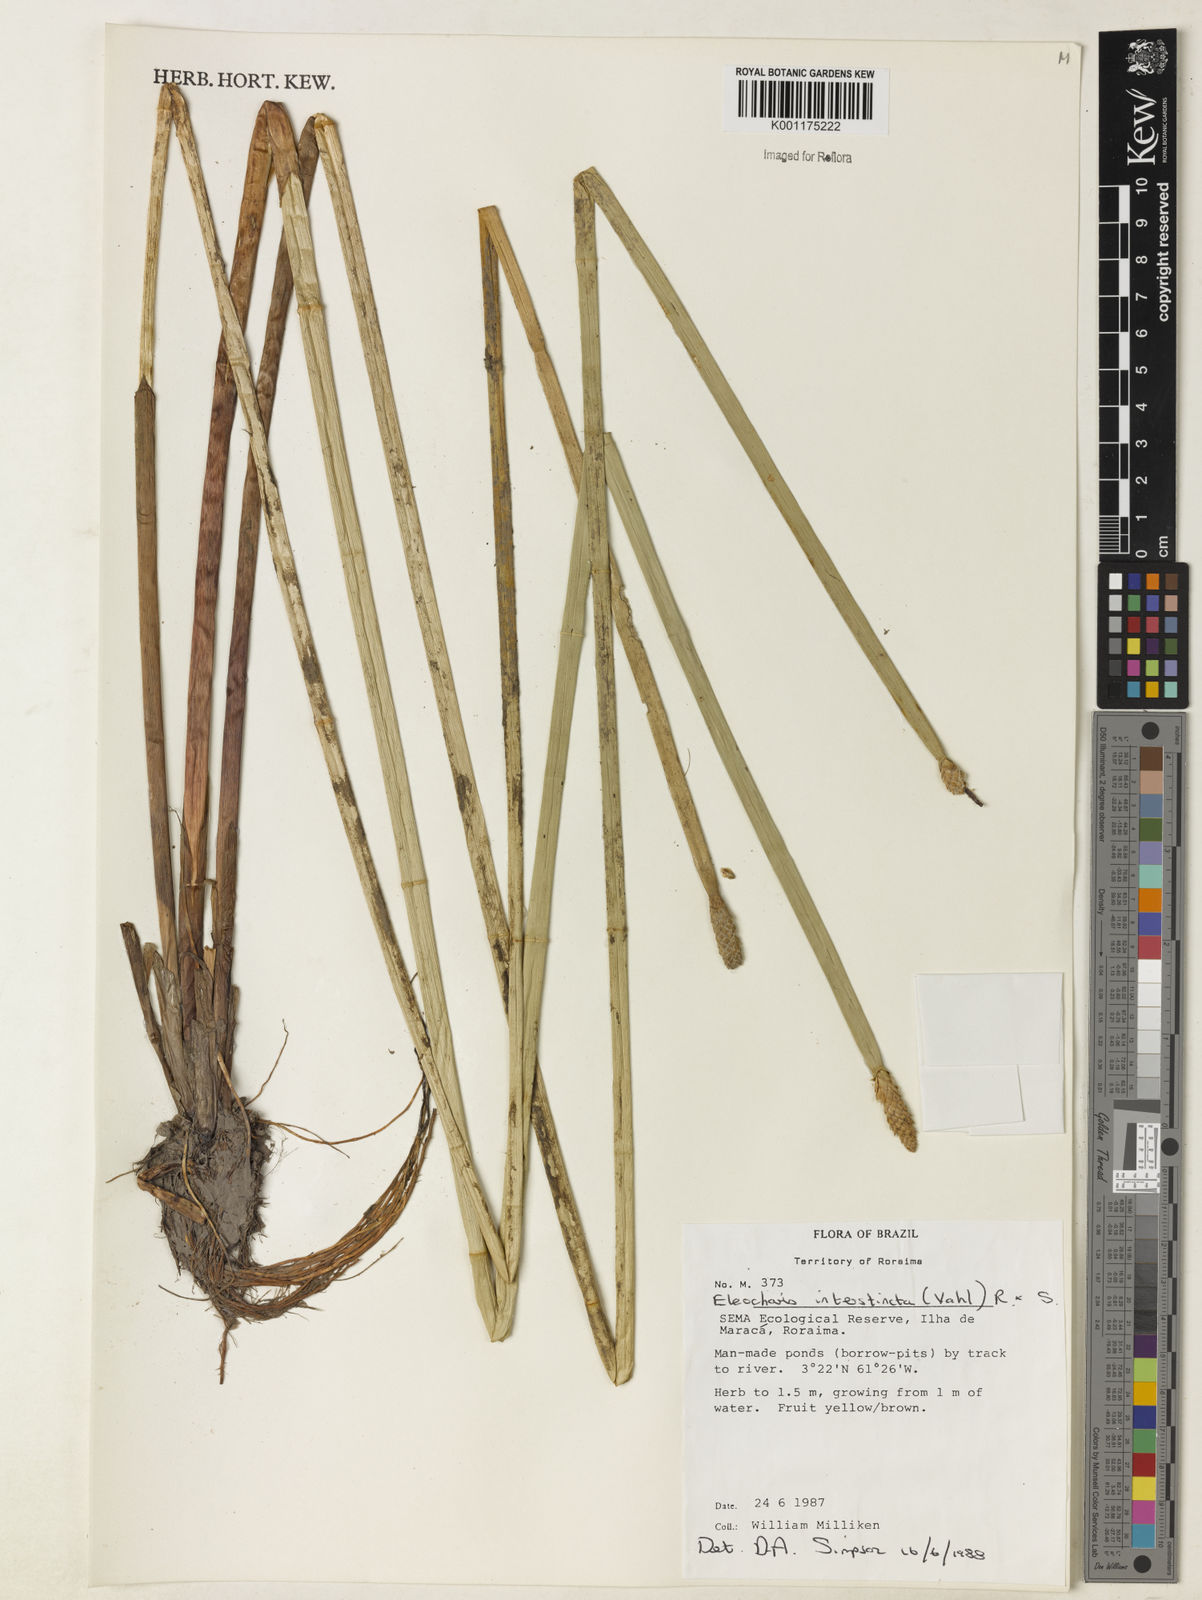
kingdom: Plantae
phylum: Tracheophyta
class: Liliopsida
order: Poales
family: Cyperaceae
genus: Eleocharis
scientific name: Eleocharis interstincta
